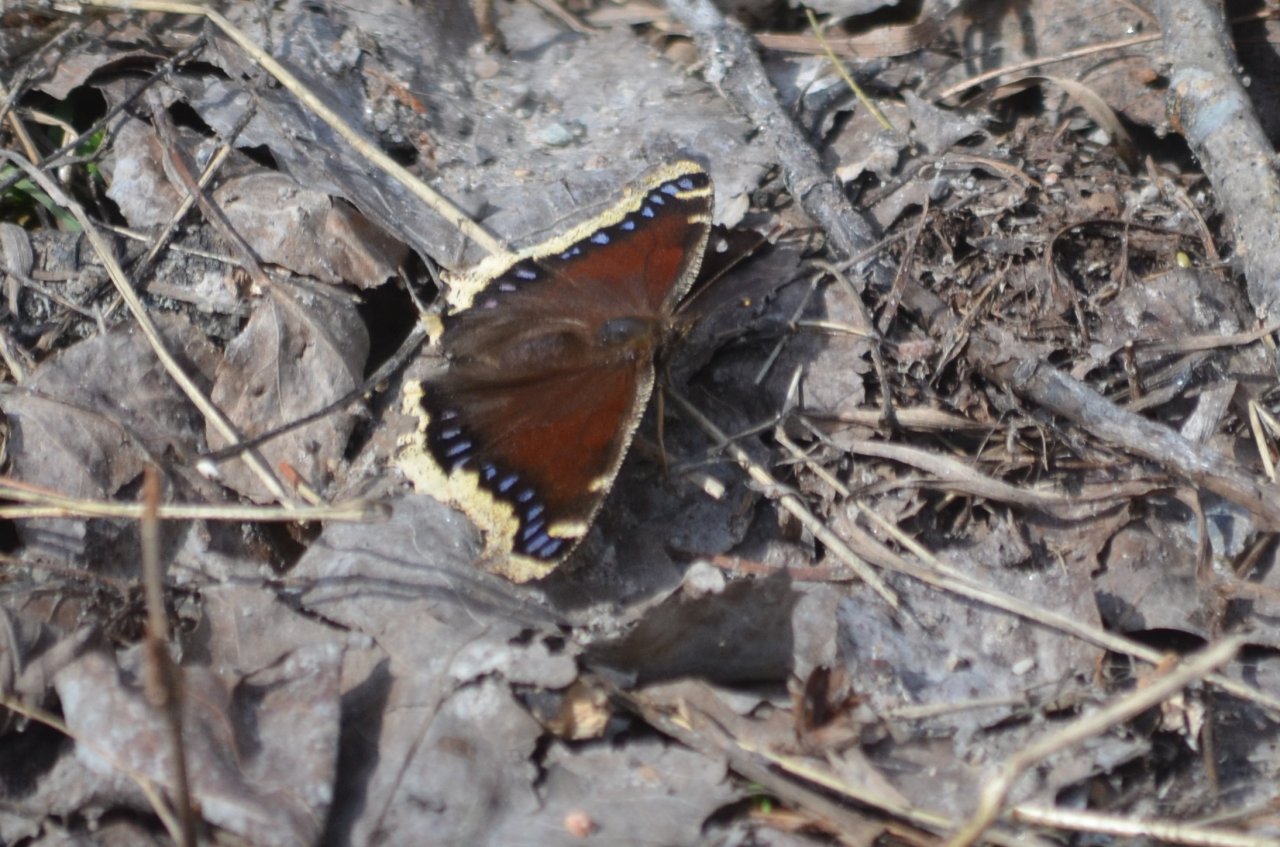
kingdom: Animalia
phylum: Arthropoda
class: Insecta
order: Lepidoptera
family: Nymphalidae
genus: Nymphalis
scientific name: Nymphalis antiopa
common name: Mourning Cloak
